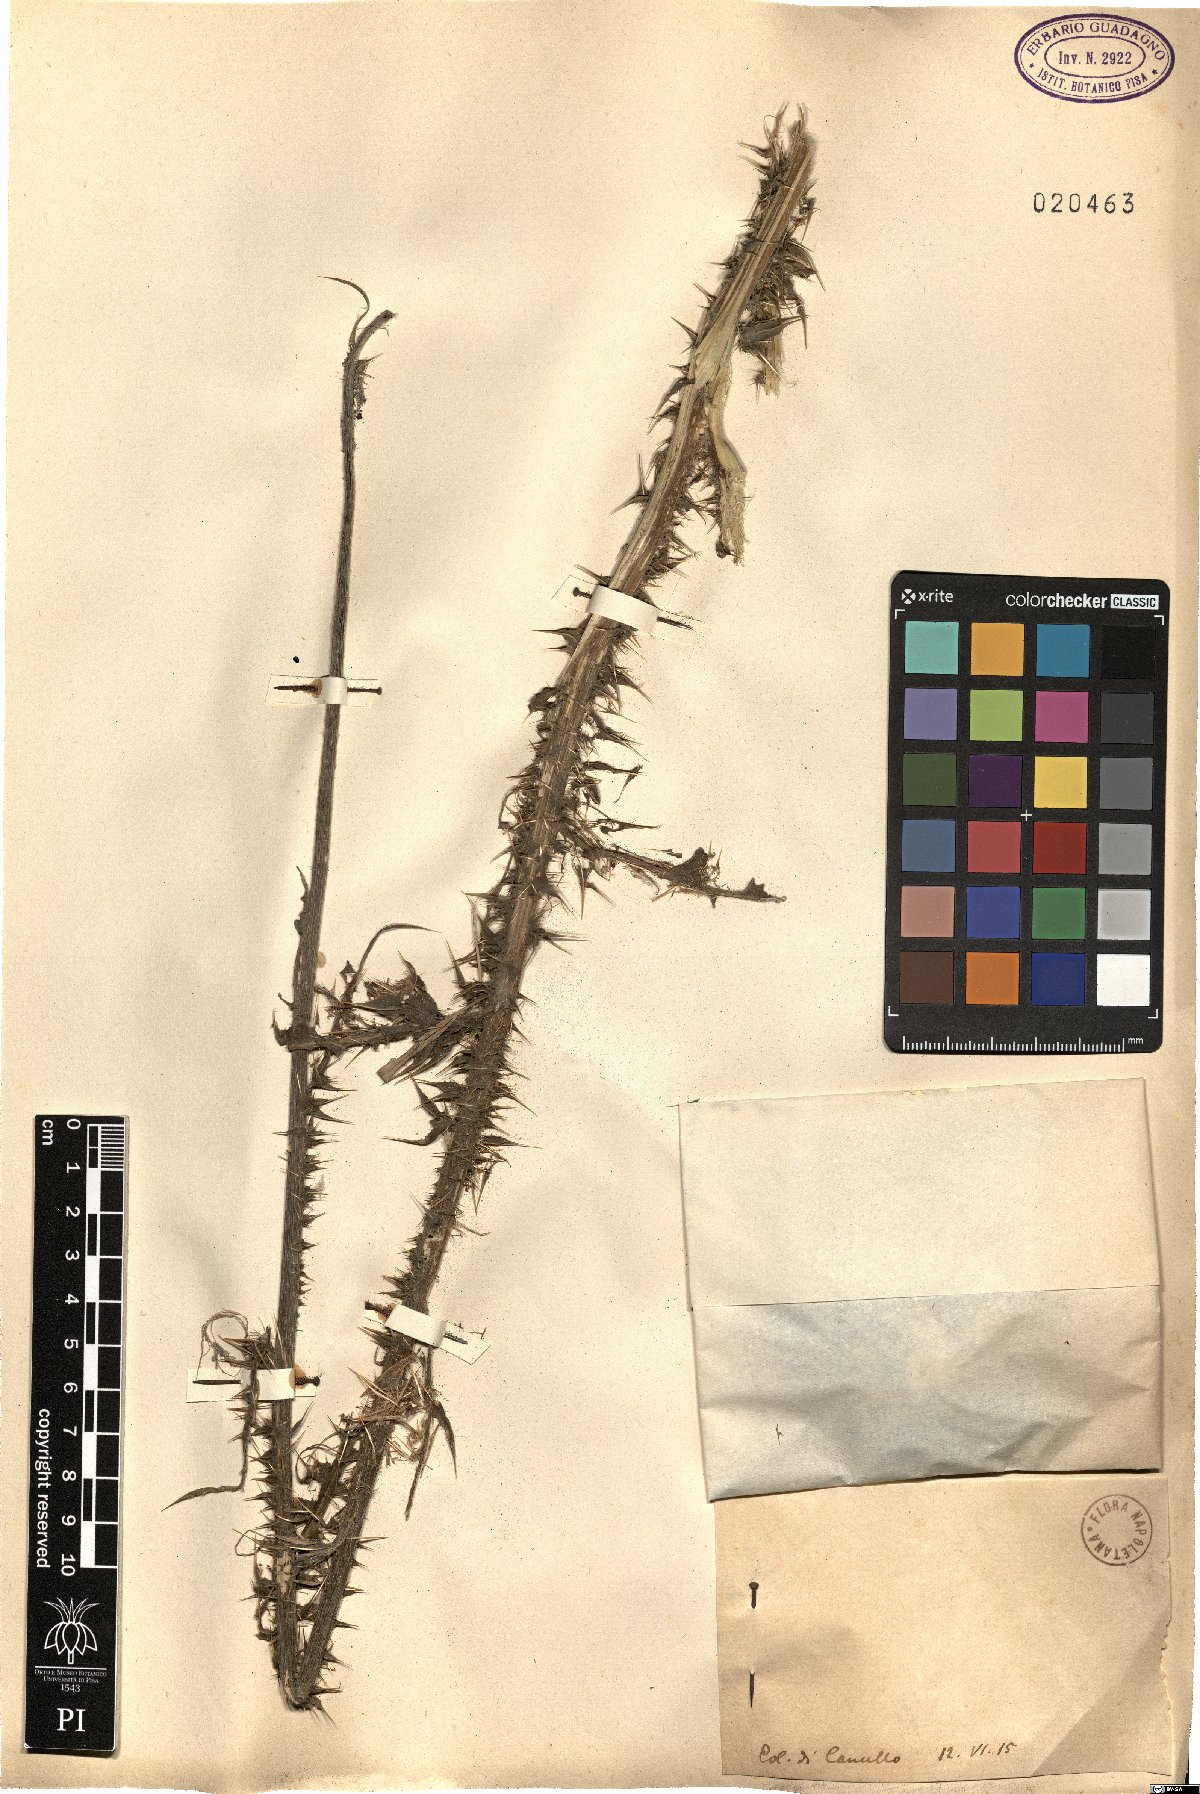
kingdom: Plantae
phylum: Tracheophyta
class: Magnoliopsida
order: Asterales
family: Asteraceae
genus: Carduus
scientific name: Carduus
